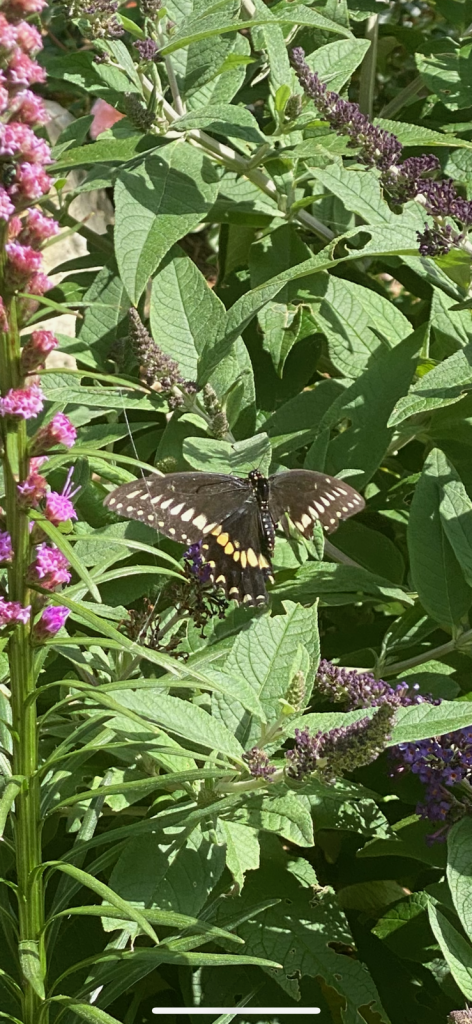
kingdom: Animalia
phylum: Arthropoda
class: Insecta
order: Lepidoptera
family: Papilionidae
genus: Papilio
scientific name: Papilio polyxenes
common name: Black Swallowtail
